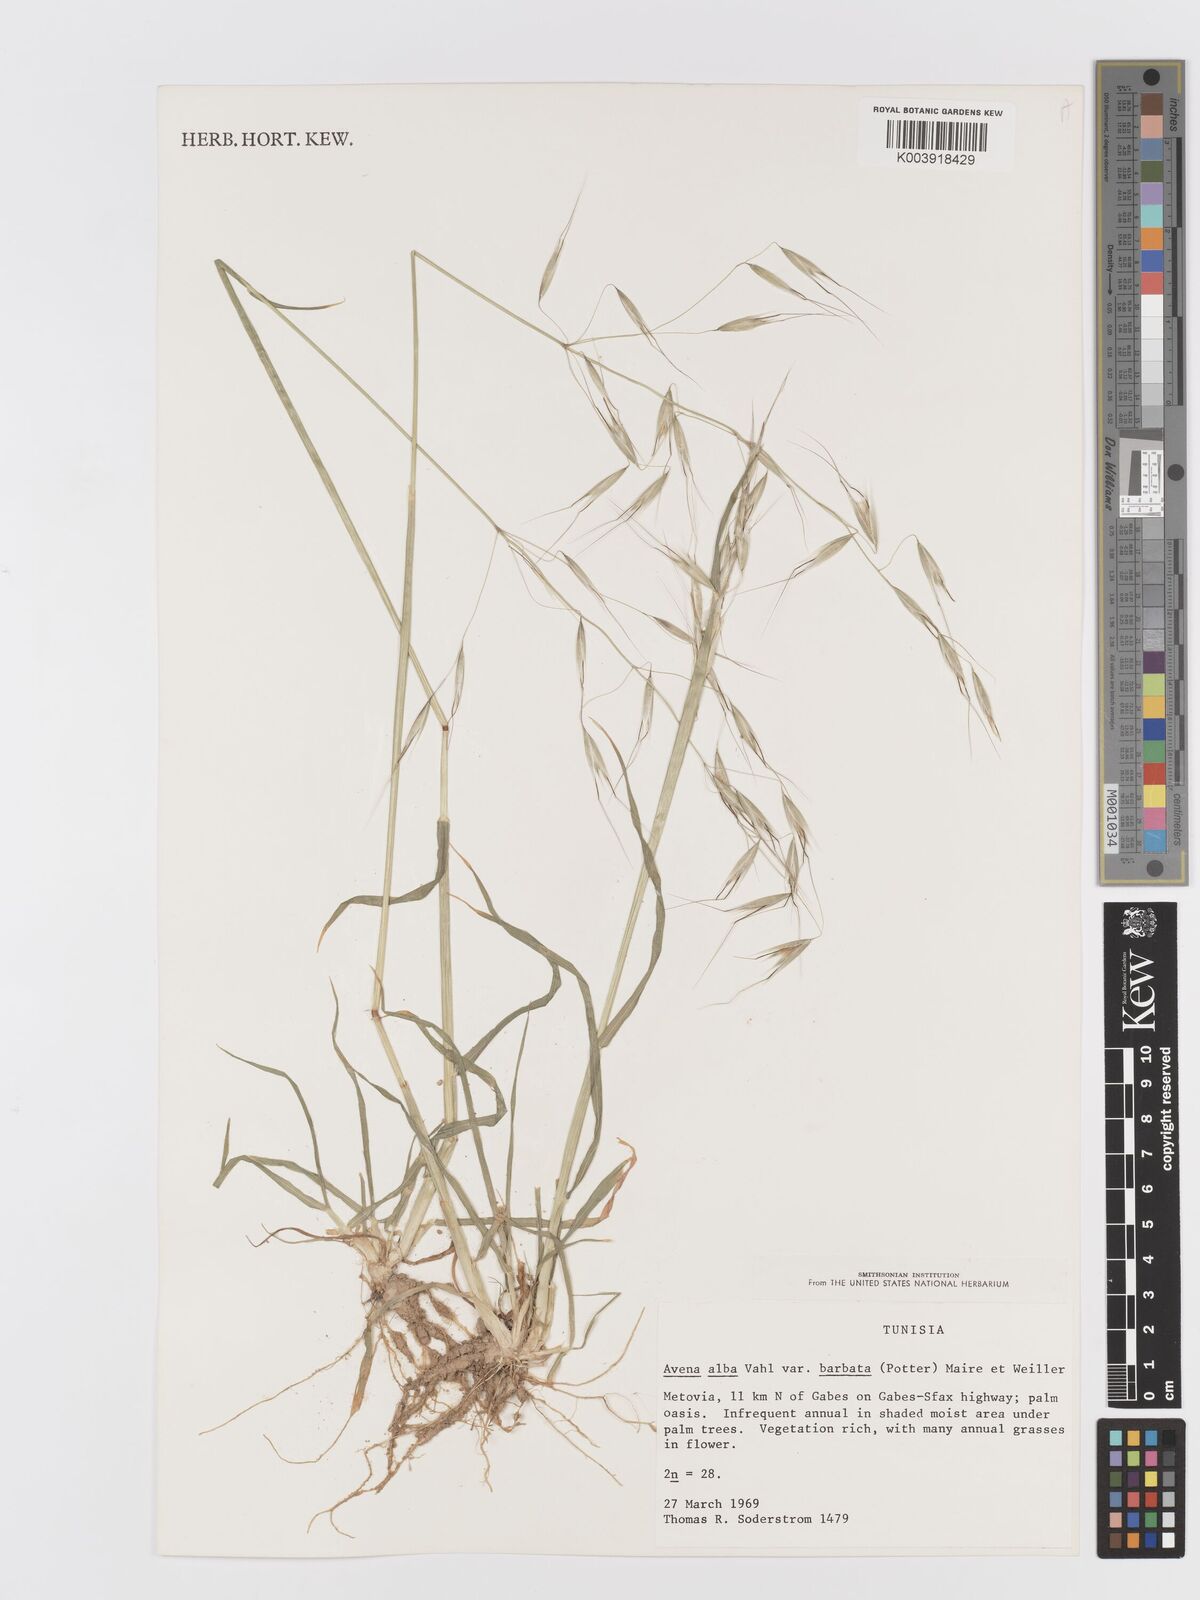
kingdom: Plantae
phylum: Tracheophyta
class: Liliopsida
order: Poales
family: Poaceae
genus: Avena
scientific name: Avena
